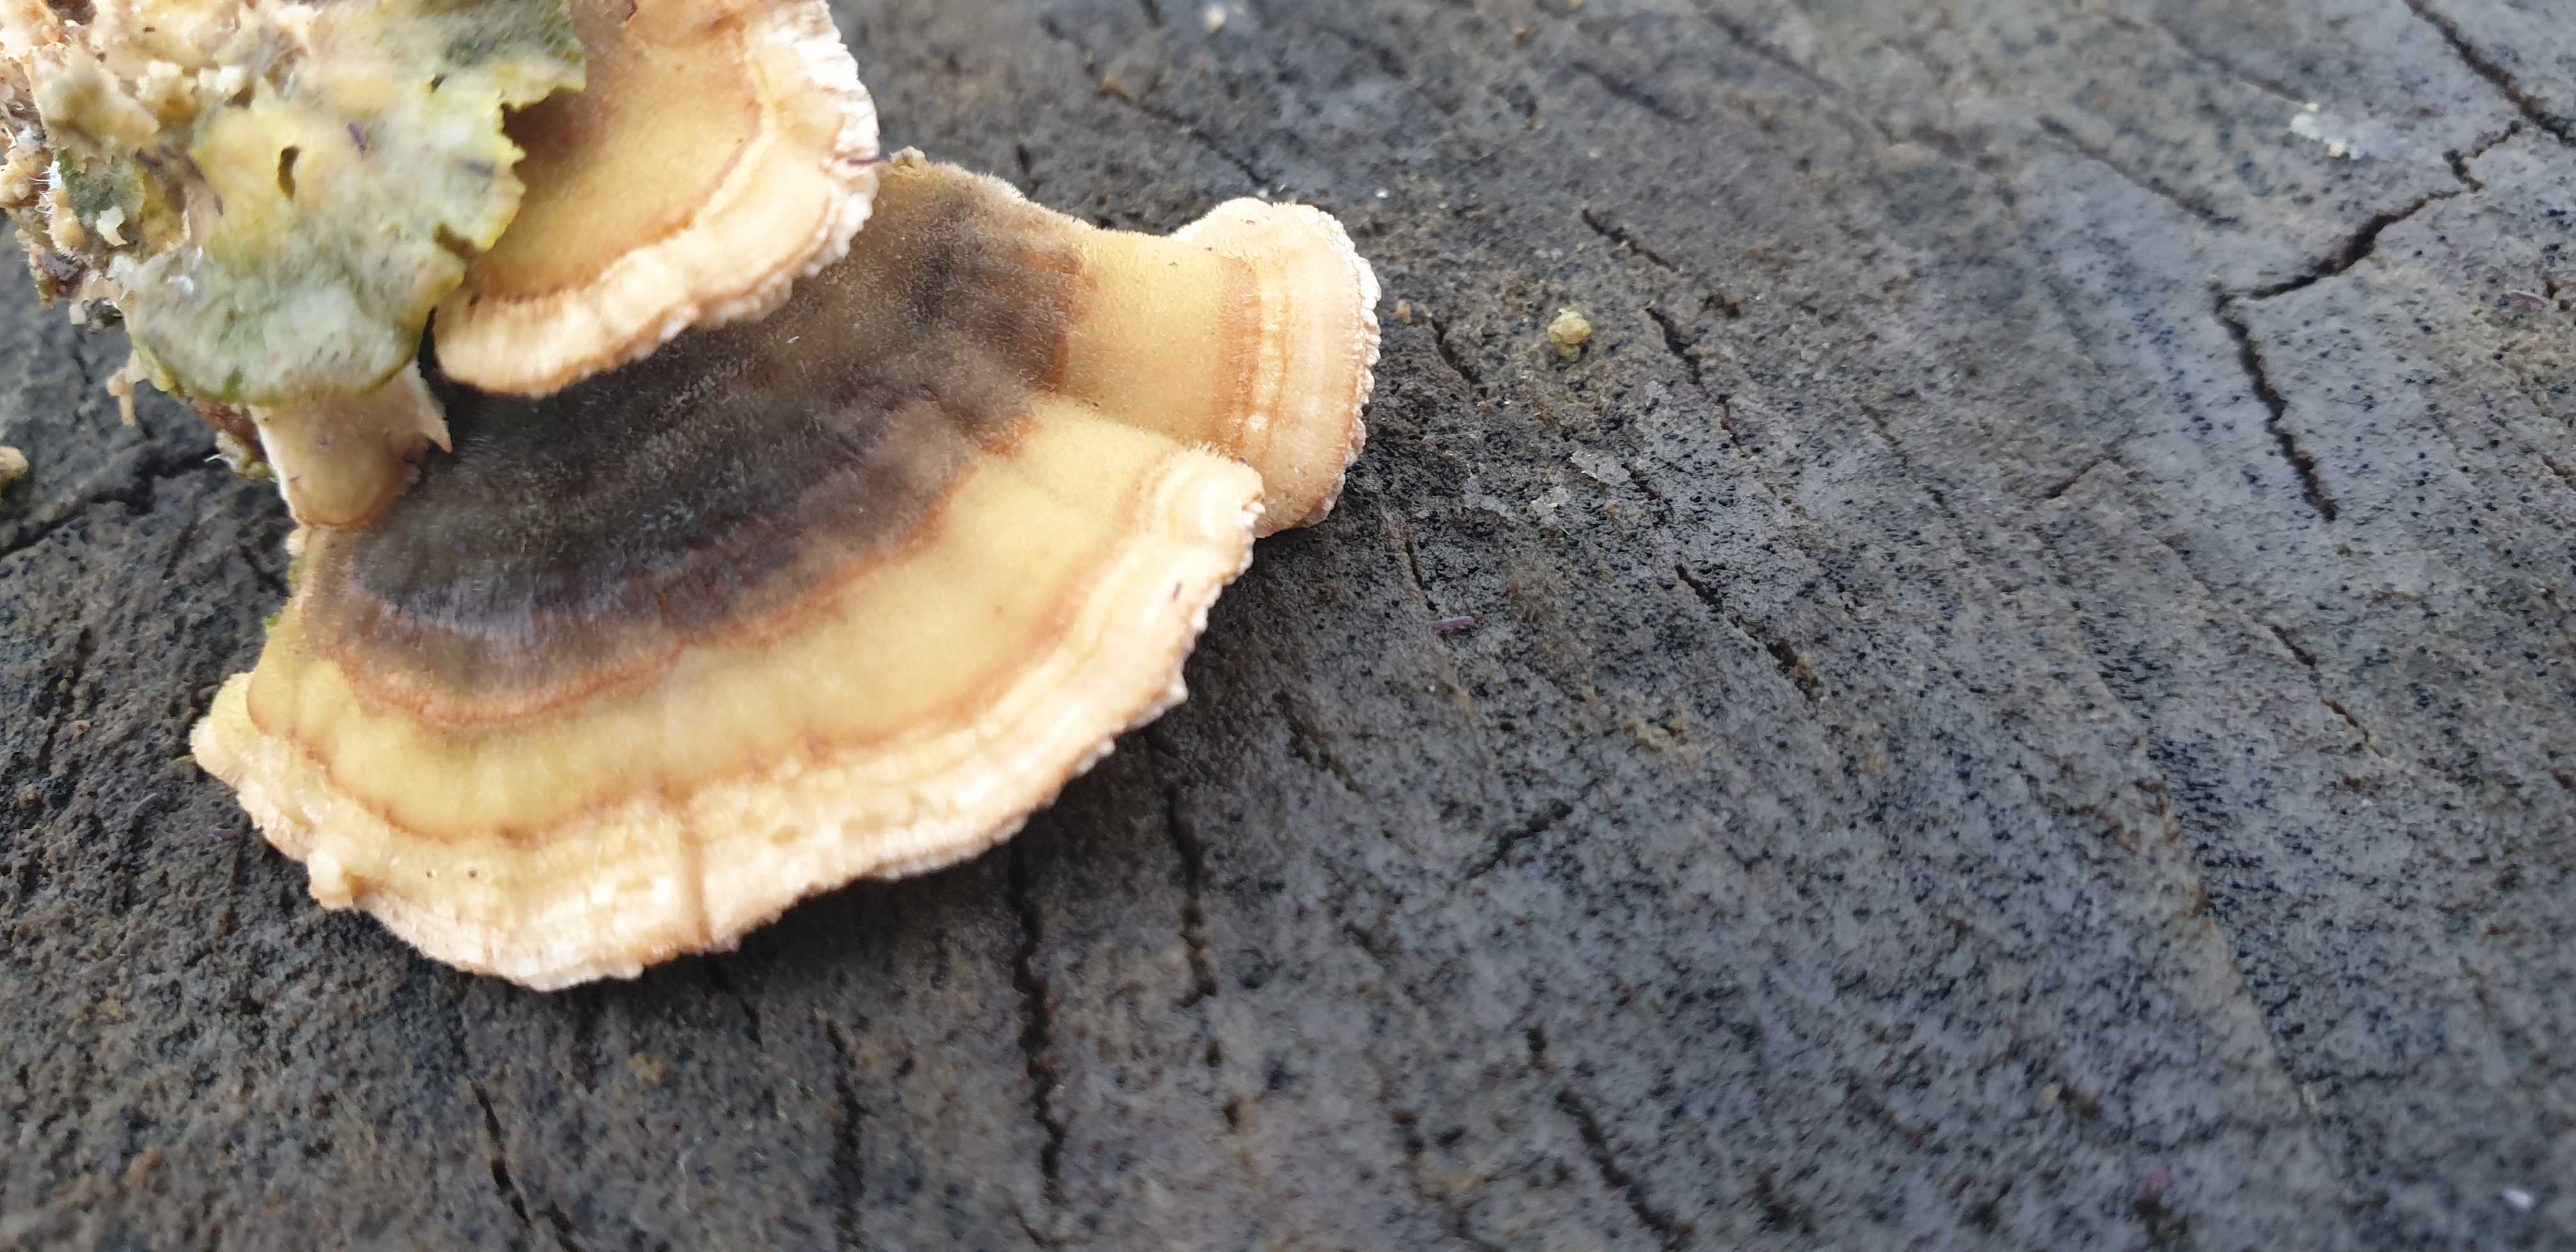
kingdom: Fungi
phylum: Basidiomycota
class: Agaricomycetes
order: Polyporales
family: Polyporaceae
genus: Trametes
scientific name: Trametes versicolor
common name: broget læderporesvamp
